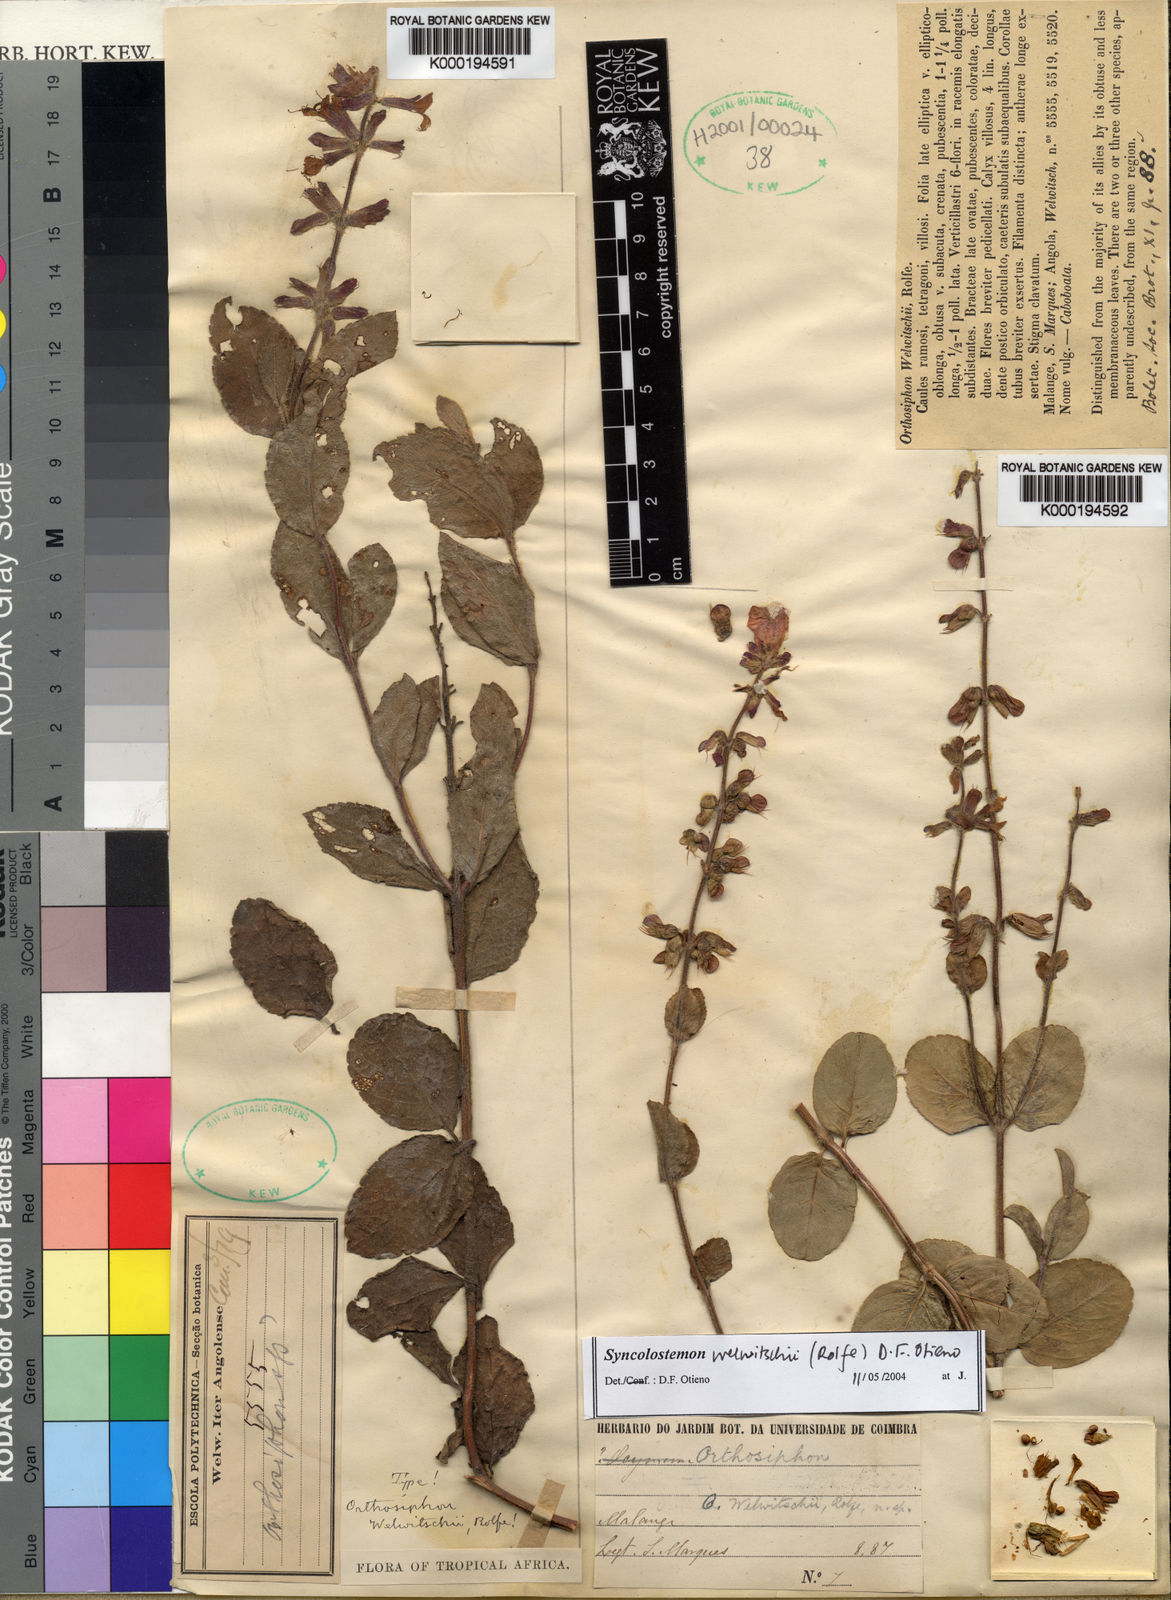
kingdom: Plantae
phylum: Tracheophyta
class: Magnoliopsida
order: Lamiales
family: Lamiaceae
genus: Syncolostemon
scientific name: Syncolostemon welwitschii
